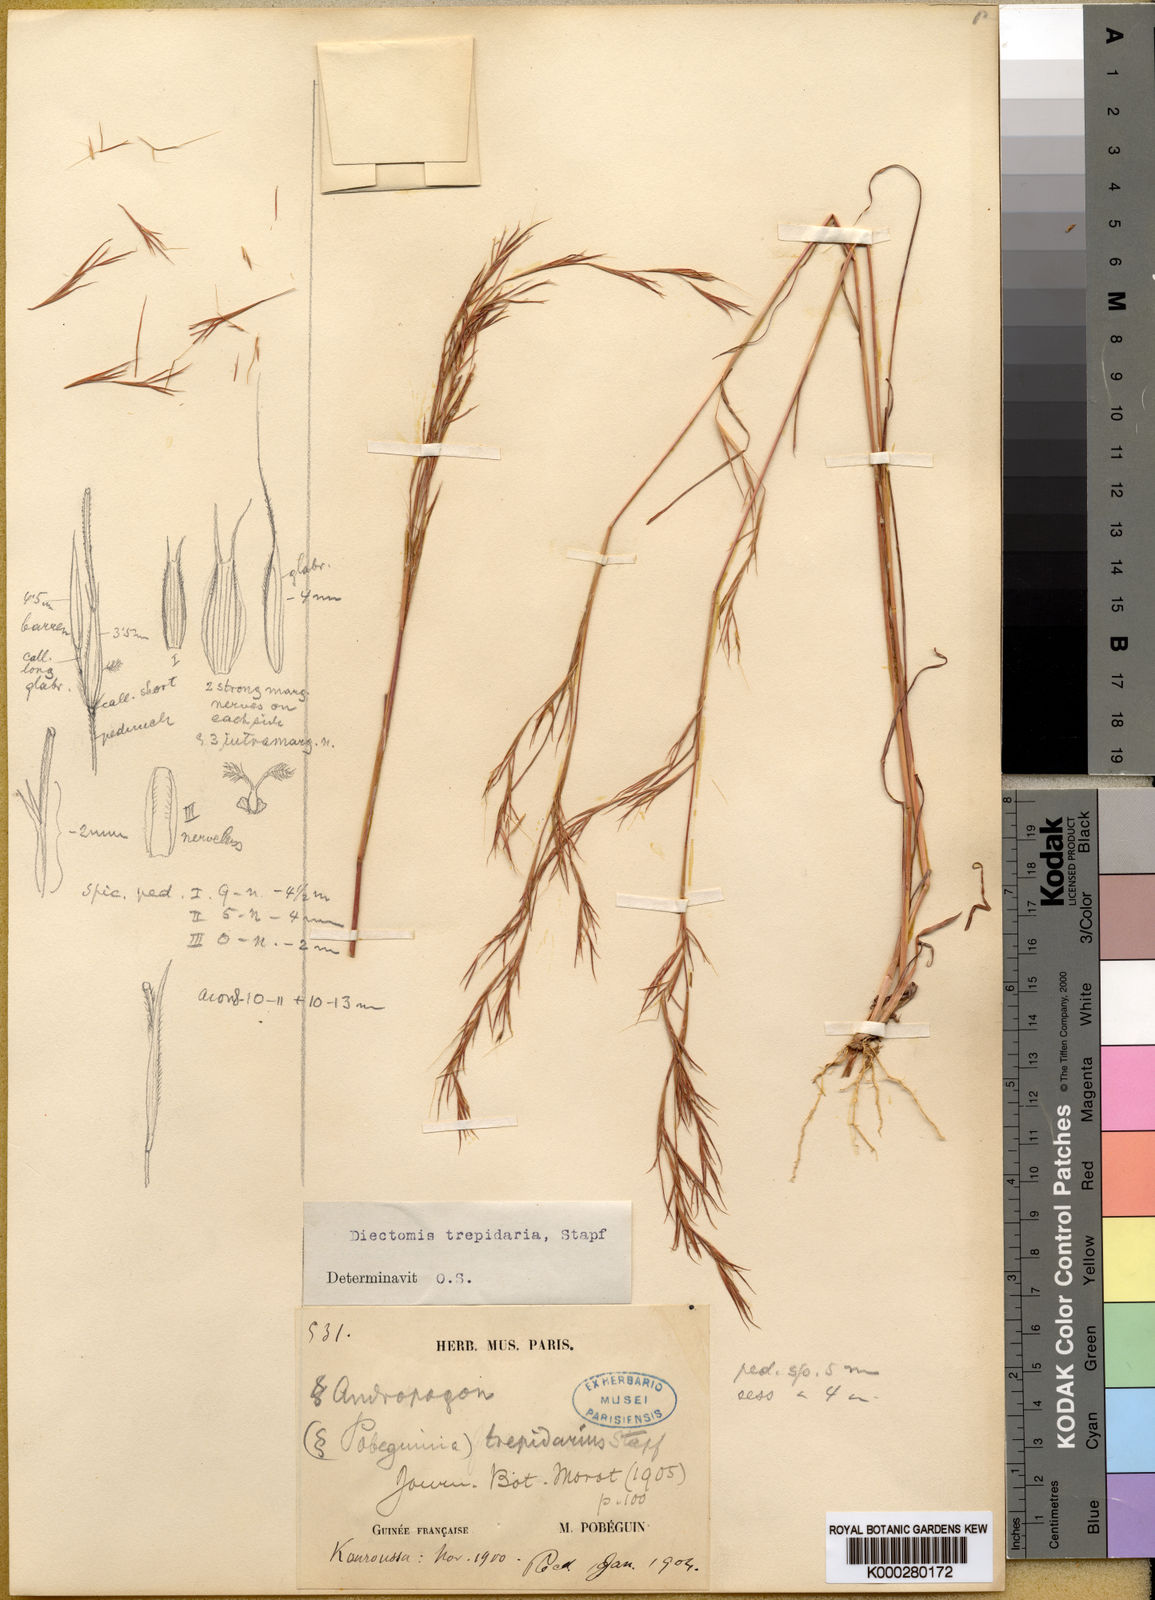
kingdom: Plantae
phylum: Tracheophyta
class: Liliopsida
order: Poales
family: Poaceae
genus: Anadelphia
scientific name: Anadelphia trepidaria
